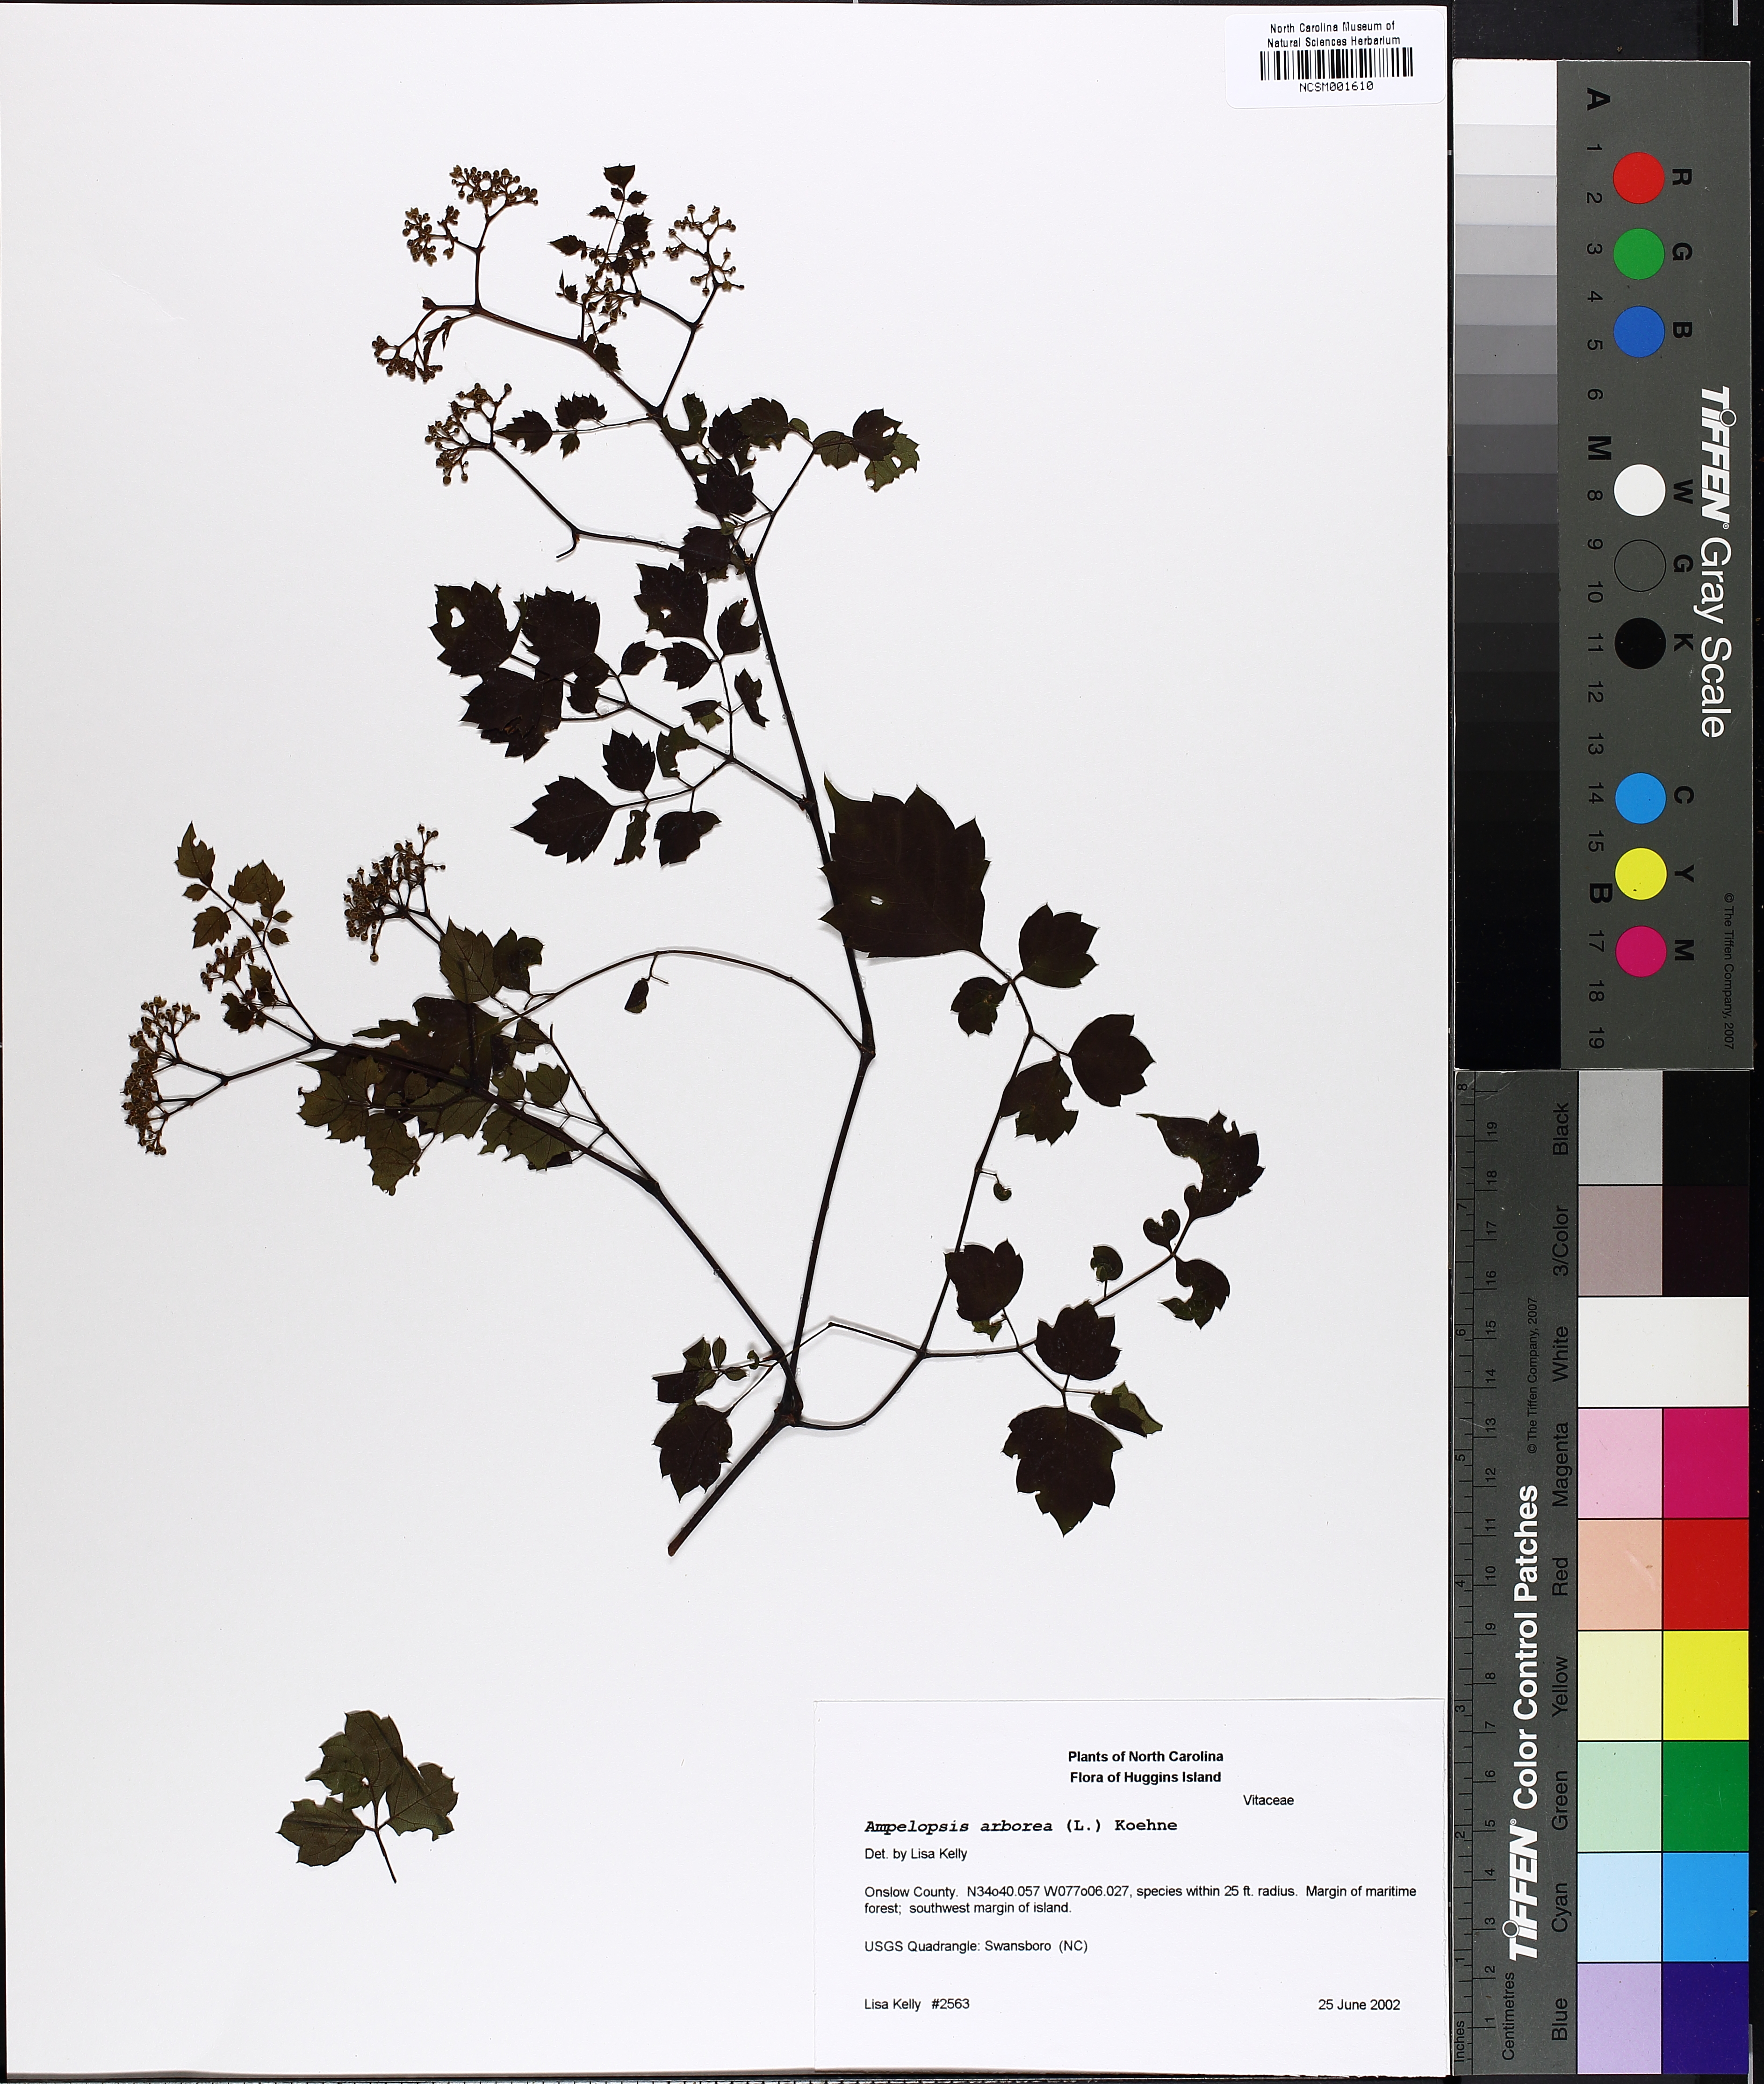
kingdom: Plantae
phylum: Tracheophyta
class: Magnoliopsida
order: Vitales
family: Vitaceae
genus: Nekemias
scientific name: Nekemias arborea
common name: Peppervine
